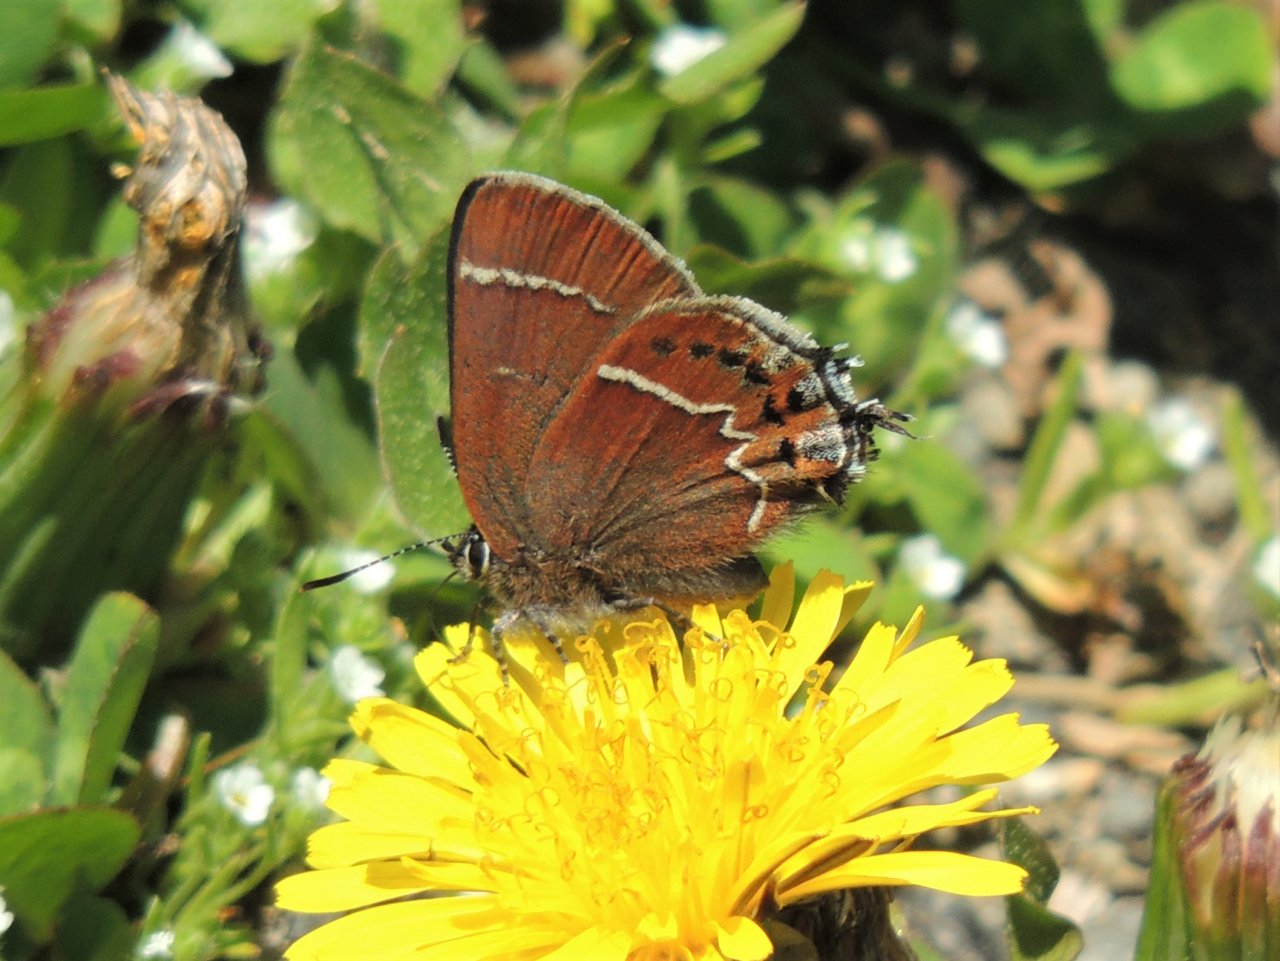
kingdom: Animalia
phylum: Arthropoda
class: Insecta
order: Lepidoptera
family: Lycaenidae
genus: Mitoura
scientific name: Mitoura spinetorum
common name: Thicket Hairstreak
